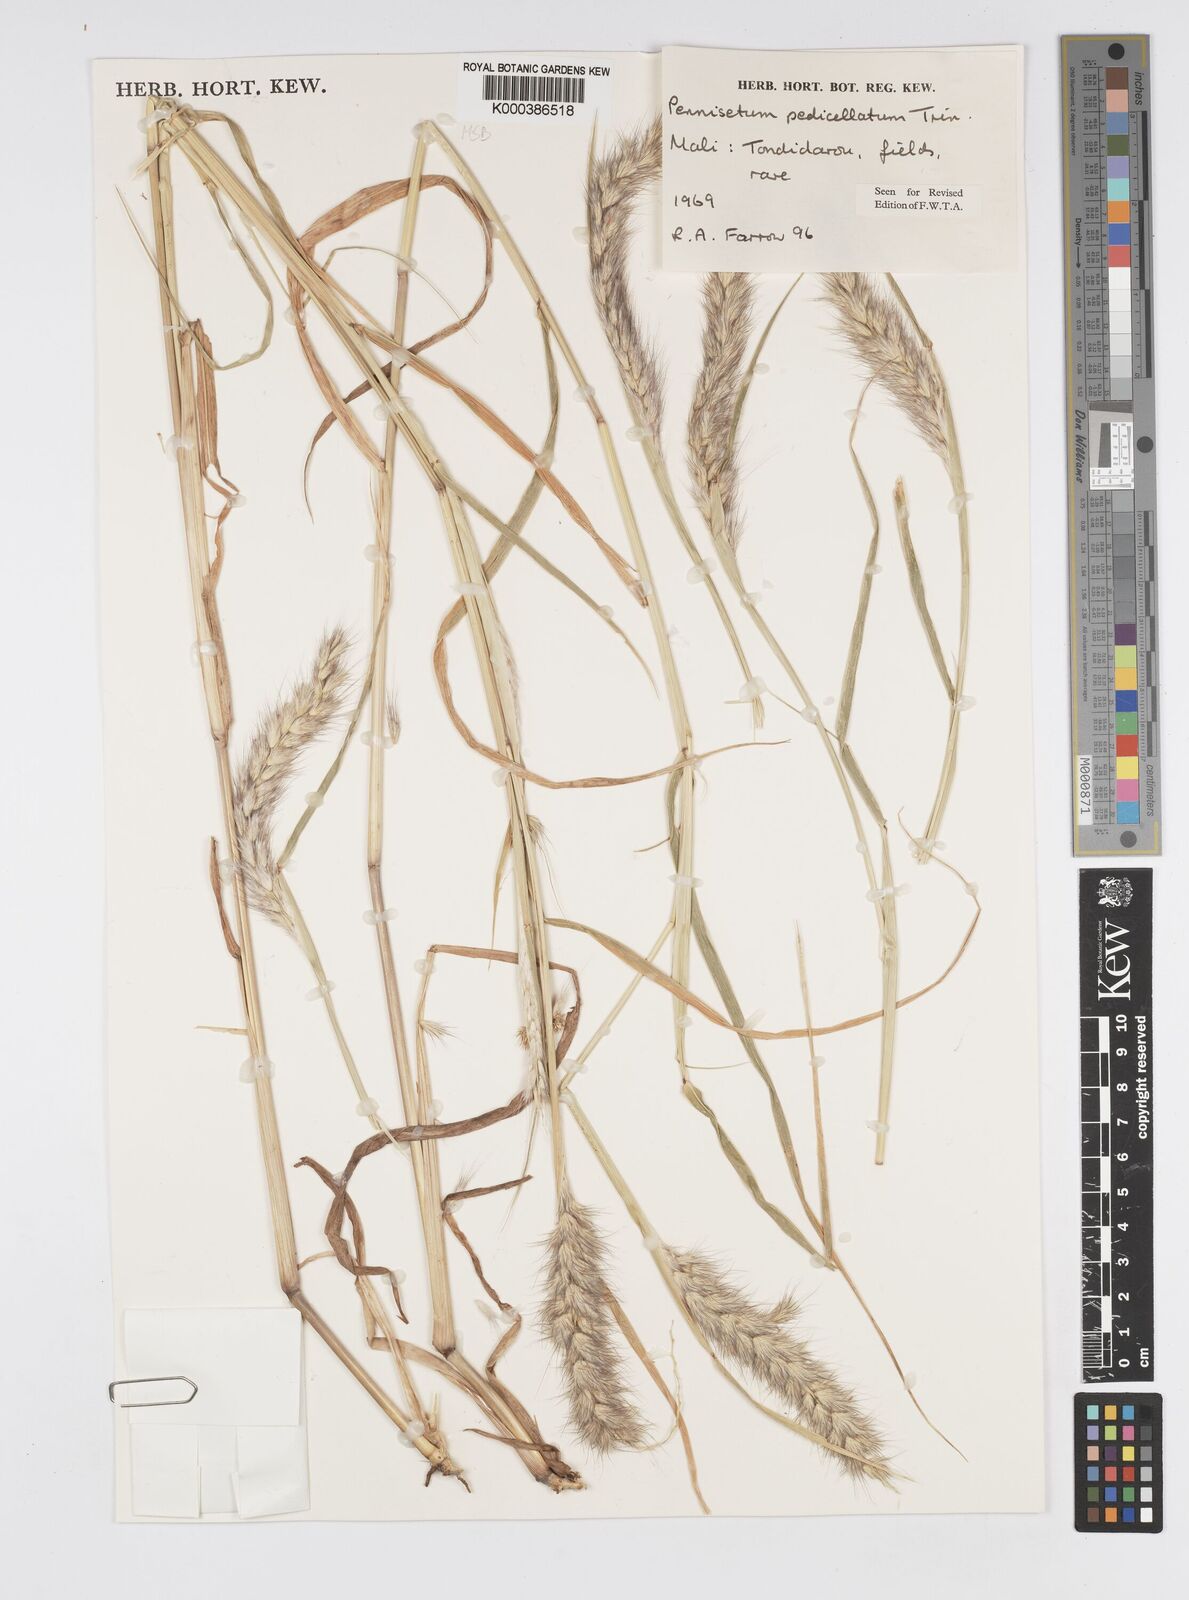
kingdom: Plantae
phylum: Tracheophyta
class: Liliopsida
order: Poales
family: Poaceae
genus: Cenchrus
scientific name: Cenchrus pedicellatus
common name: Hairy fountain grass
